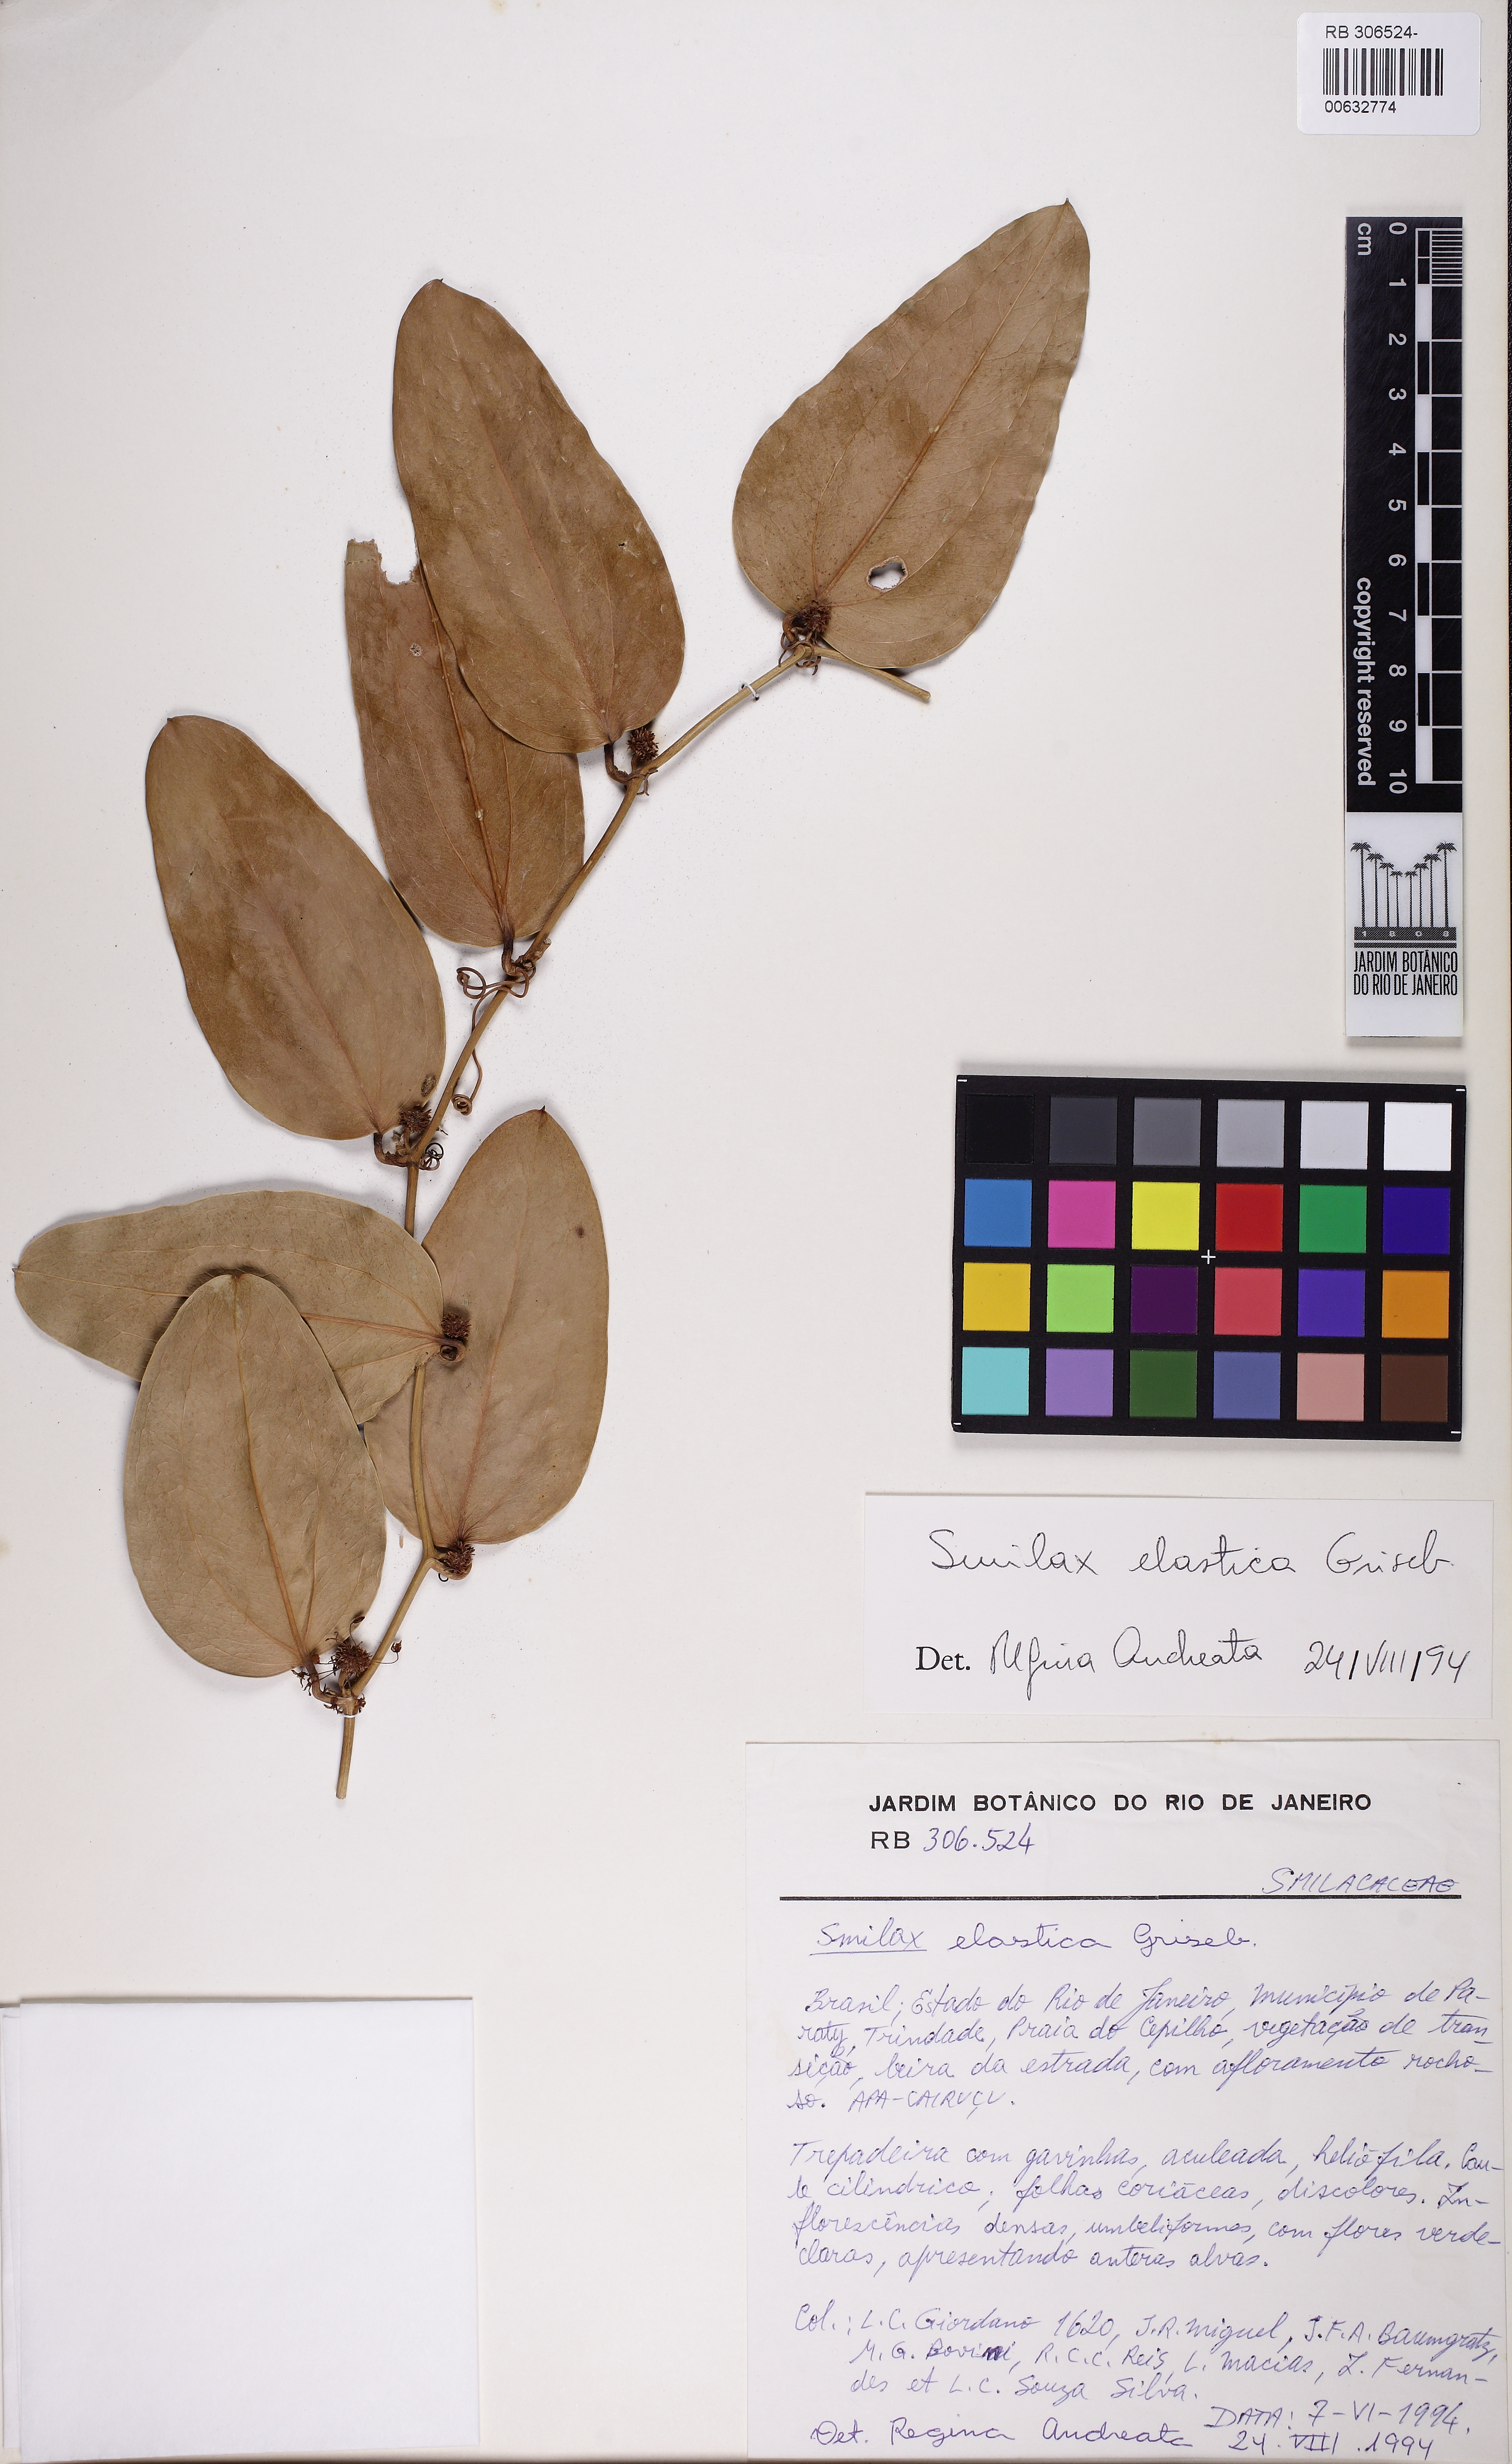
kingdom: Plantae
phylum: Tracheophyta
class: Liliopsida
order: Liliales
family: Smilacaceae
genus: Smilax
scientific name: Smilax elastica
